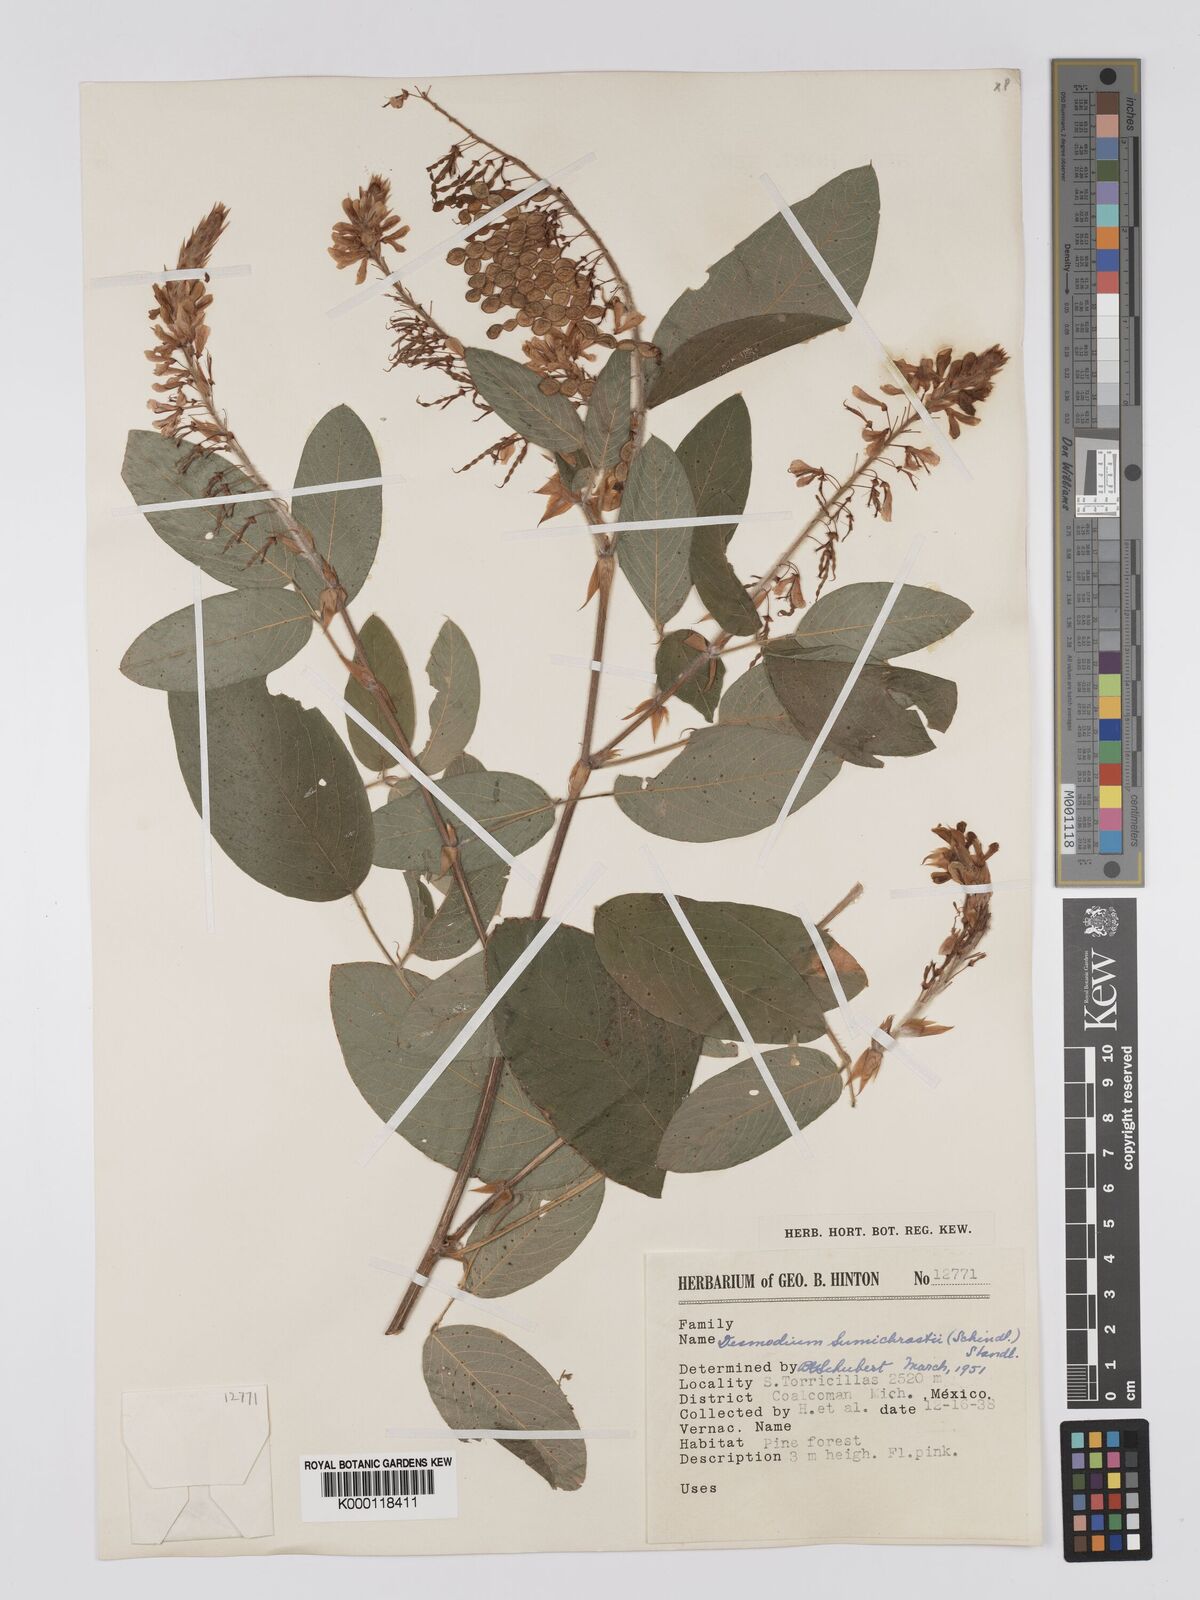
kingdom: Plantae
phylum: Tracheophyta
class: Magnoliopsida
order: Fabales
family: Fabaceae
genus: Desmodium
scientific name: Desmodium sumichrastii
